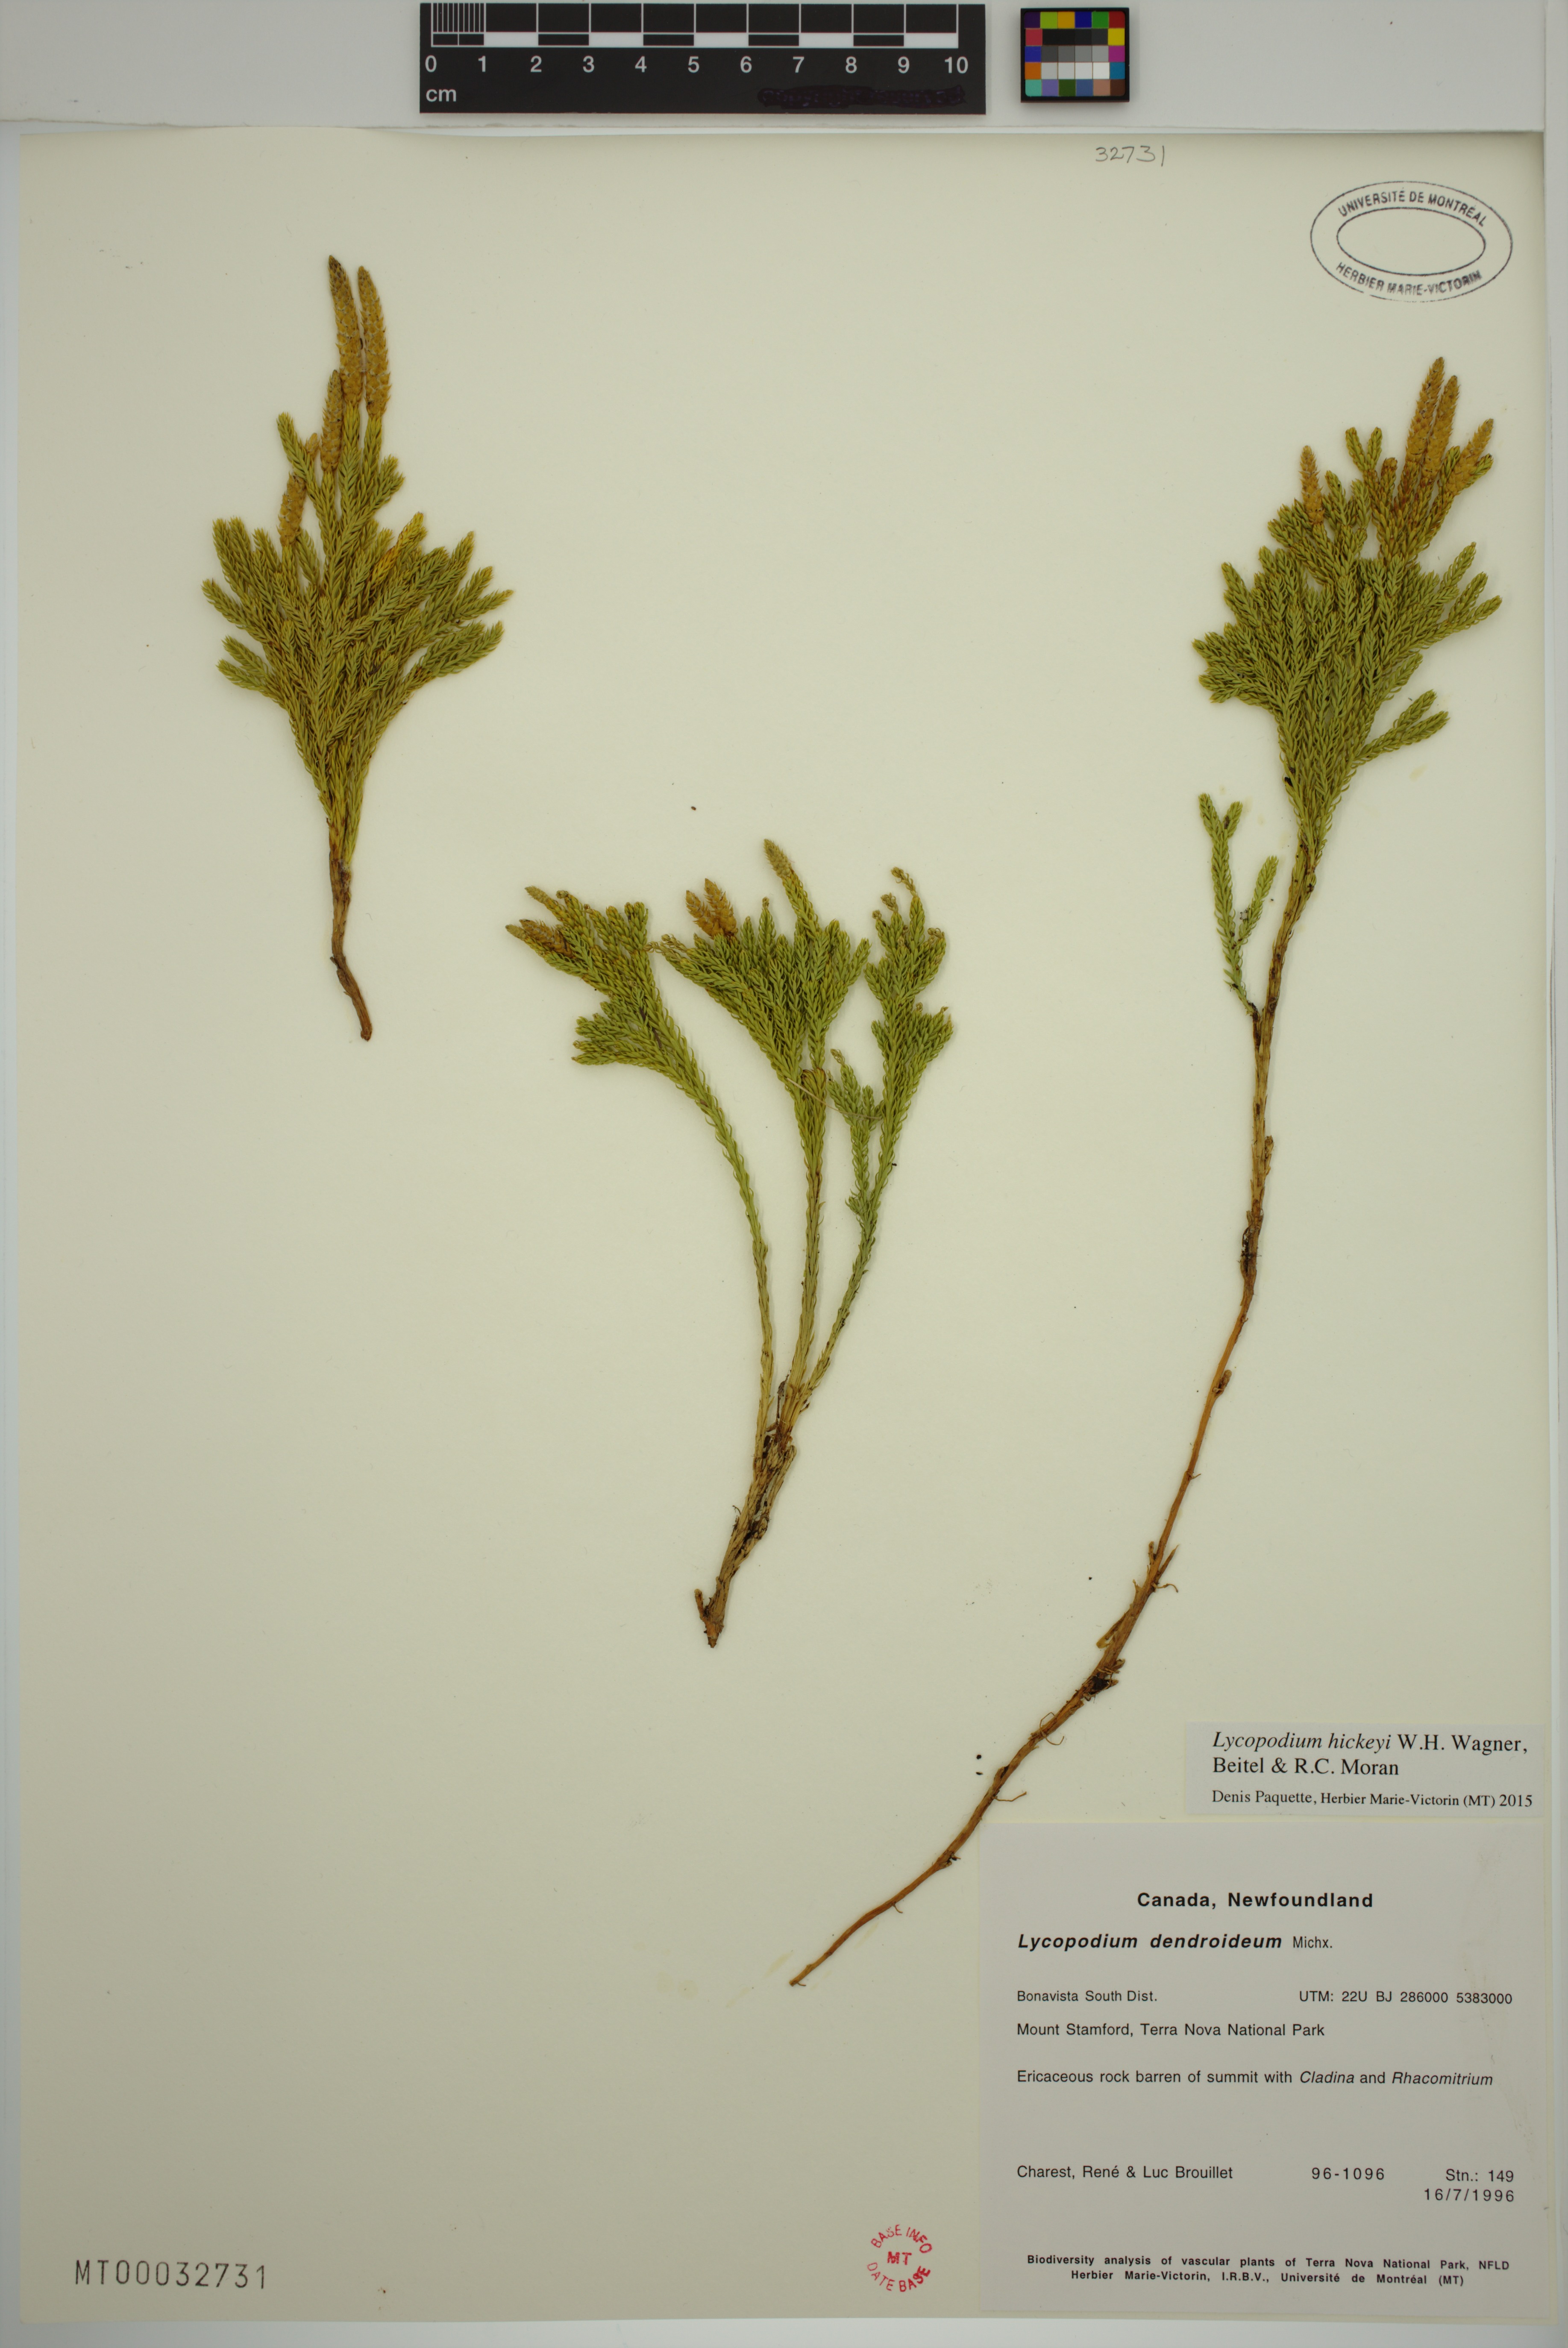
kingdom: Plantae
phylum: Tracheophyta
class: Lycopodiopsida
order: Lycopodiales
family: Lycopodiaceae
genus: Dendrolycopodium
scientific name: Dendrolycopodium hickeyi
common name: Hickey's clubmoss
